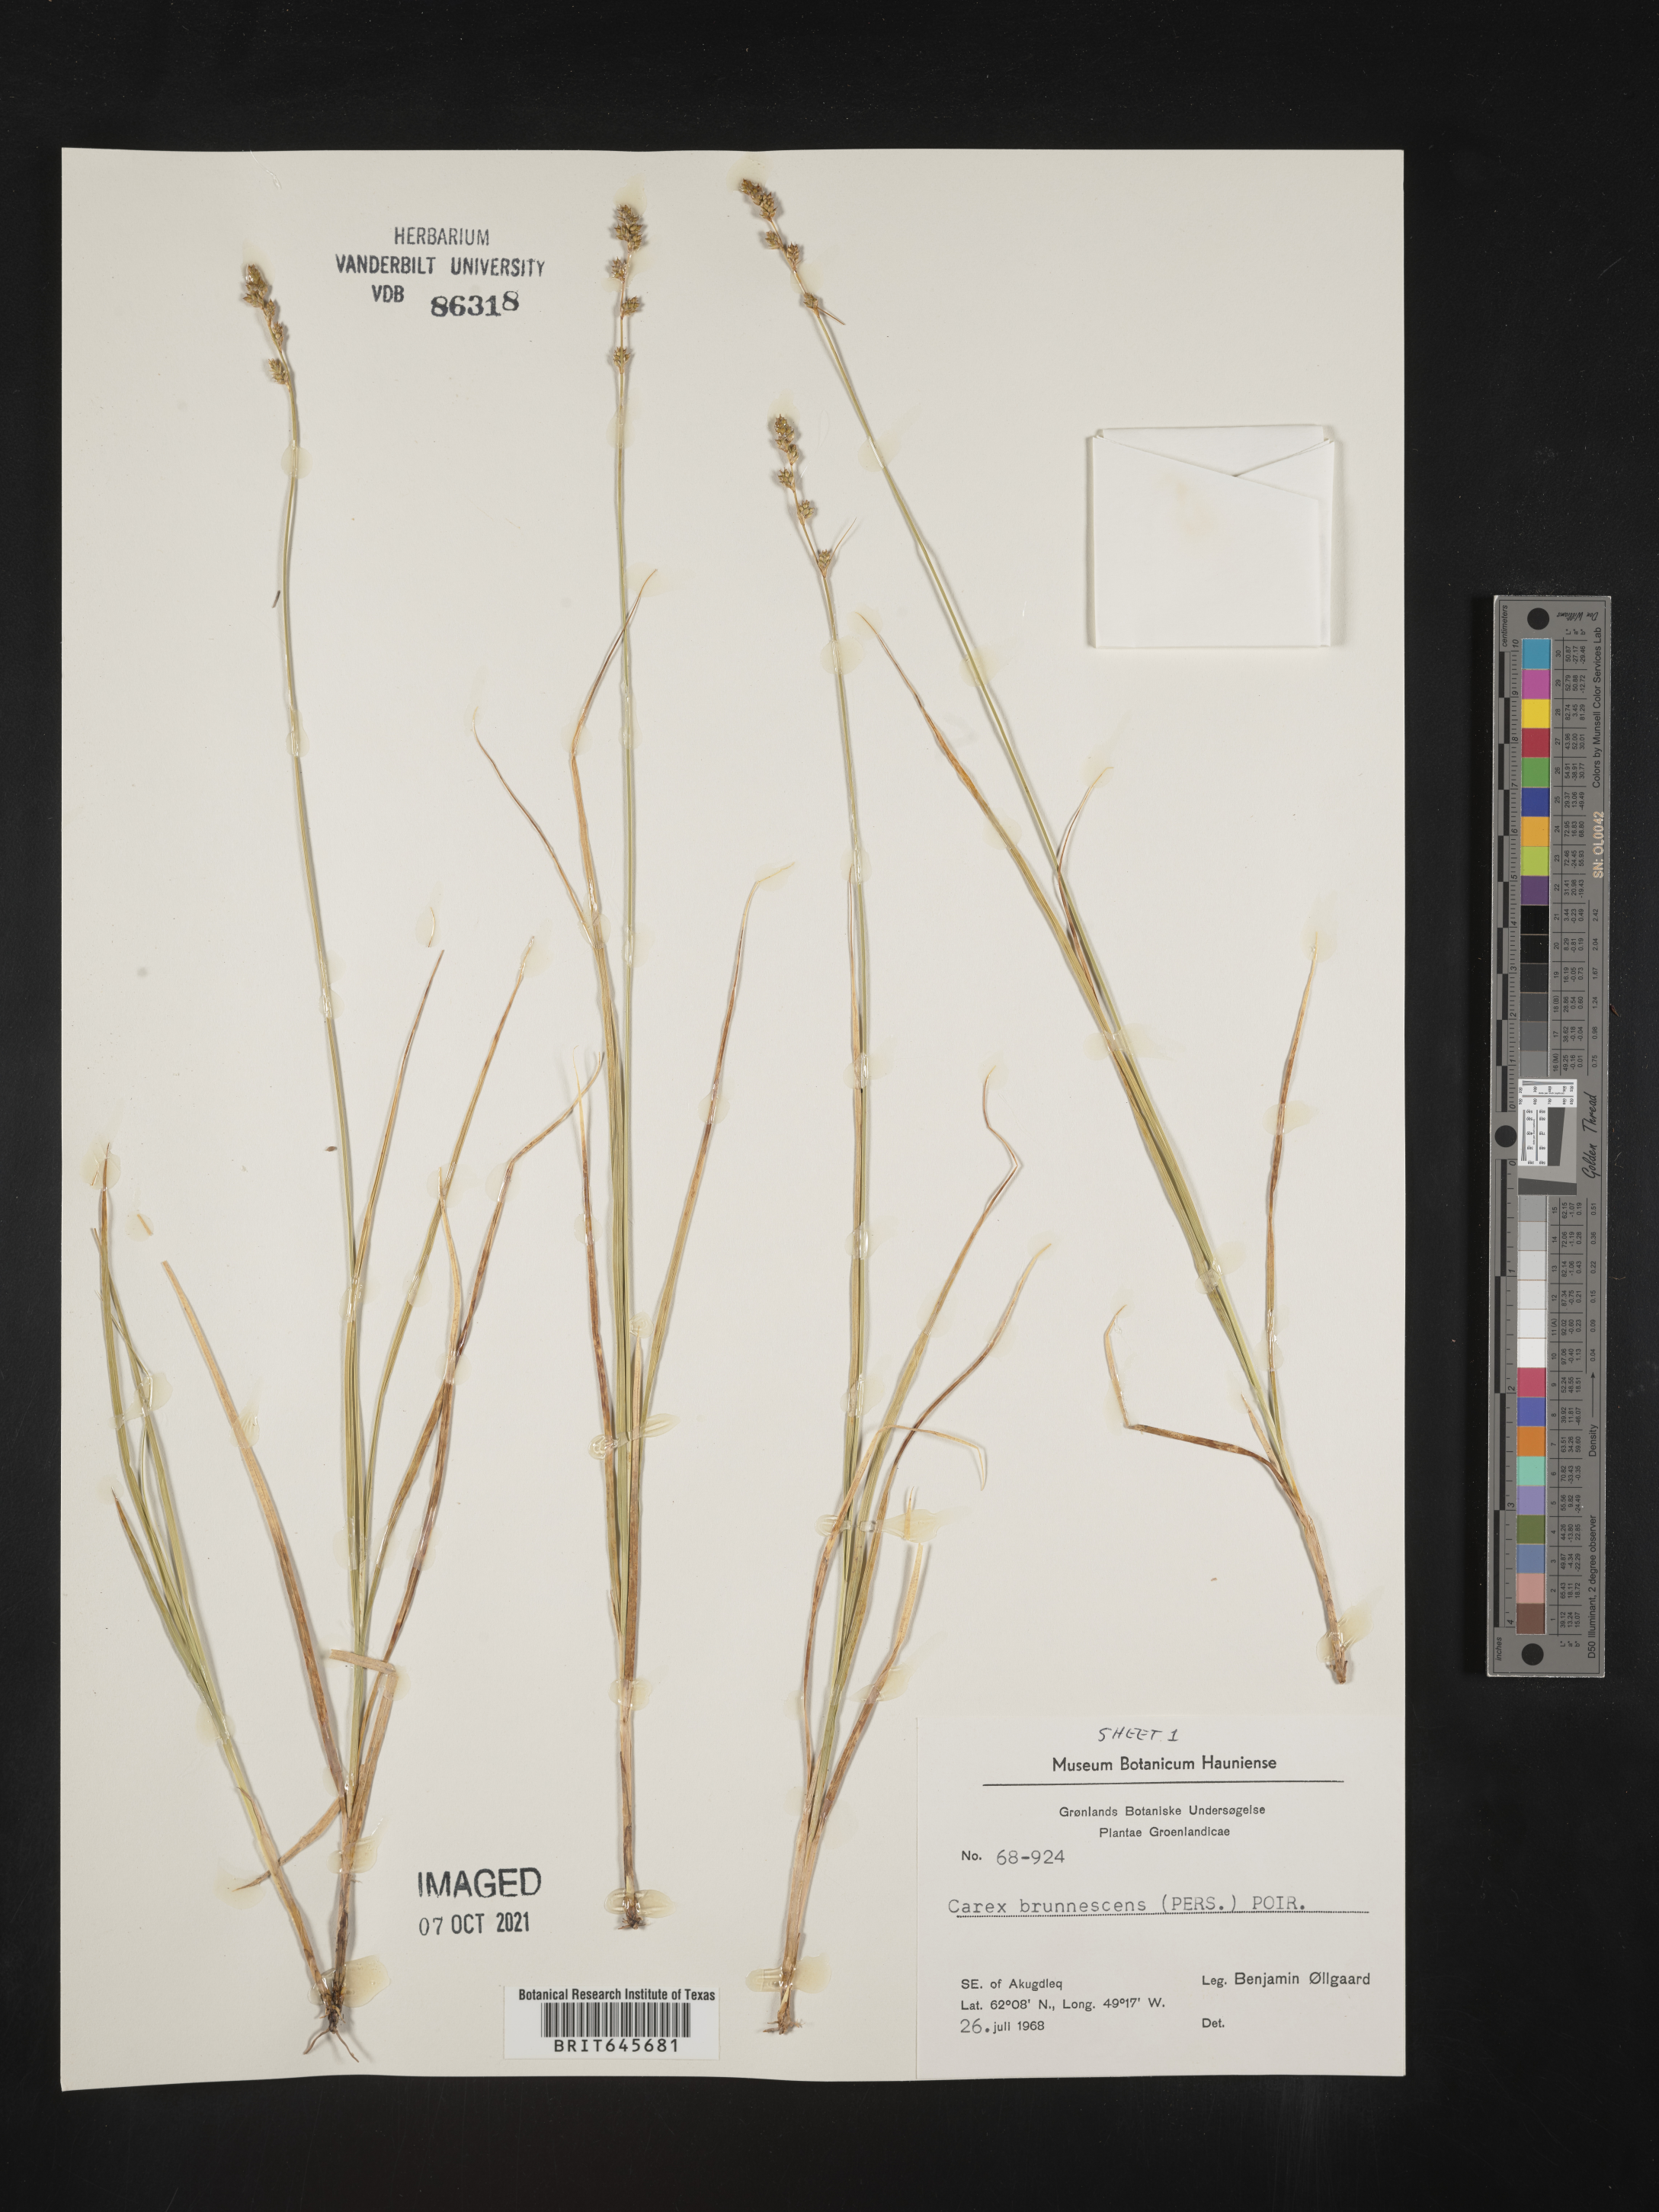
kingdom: Plantae
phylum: Tracheophyta
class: Liliopsida
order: Poales
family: Cyperaceae
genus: Carex
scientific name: Carex brunnescens
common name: Brown sedge
